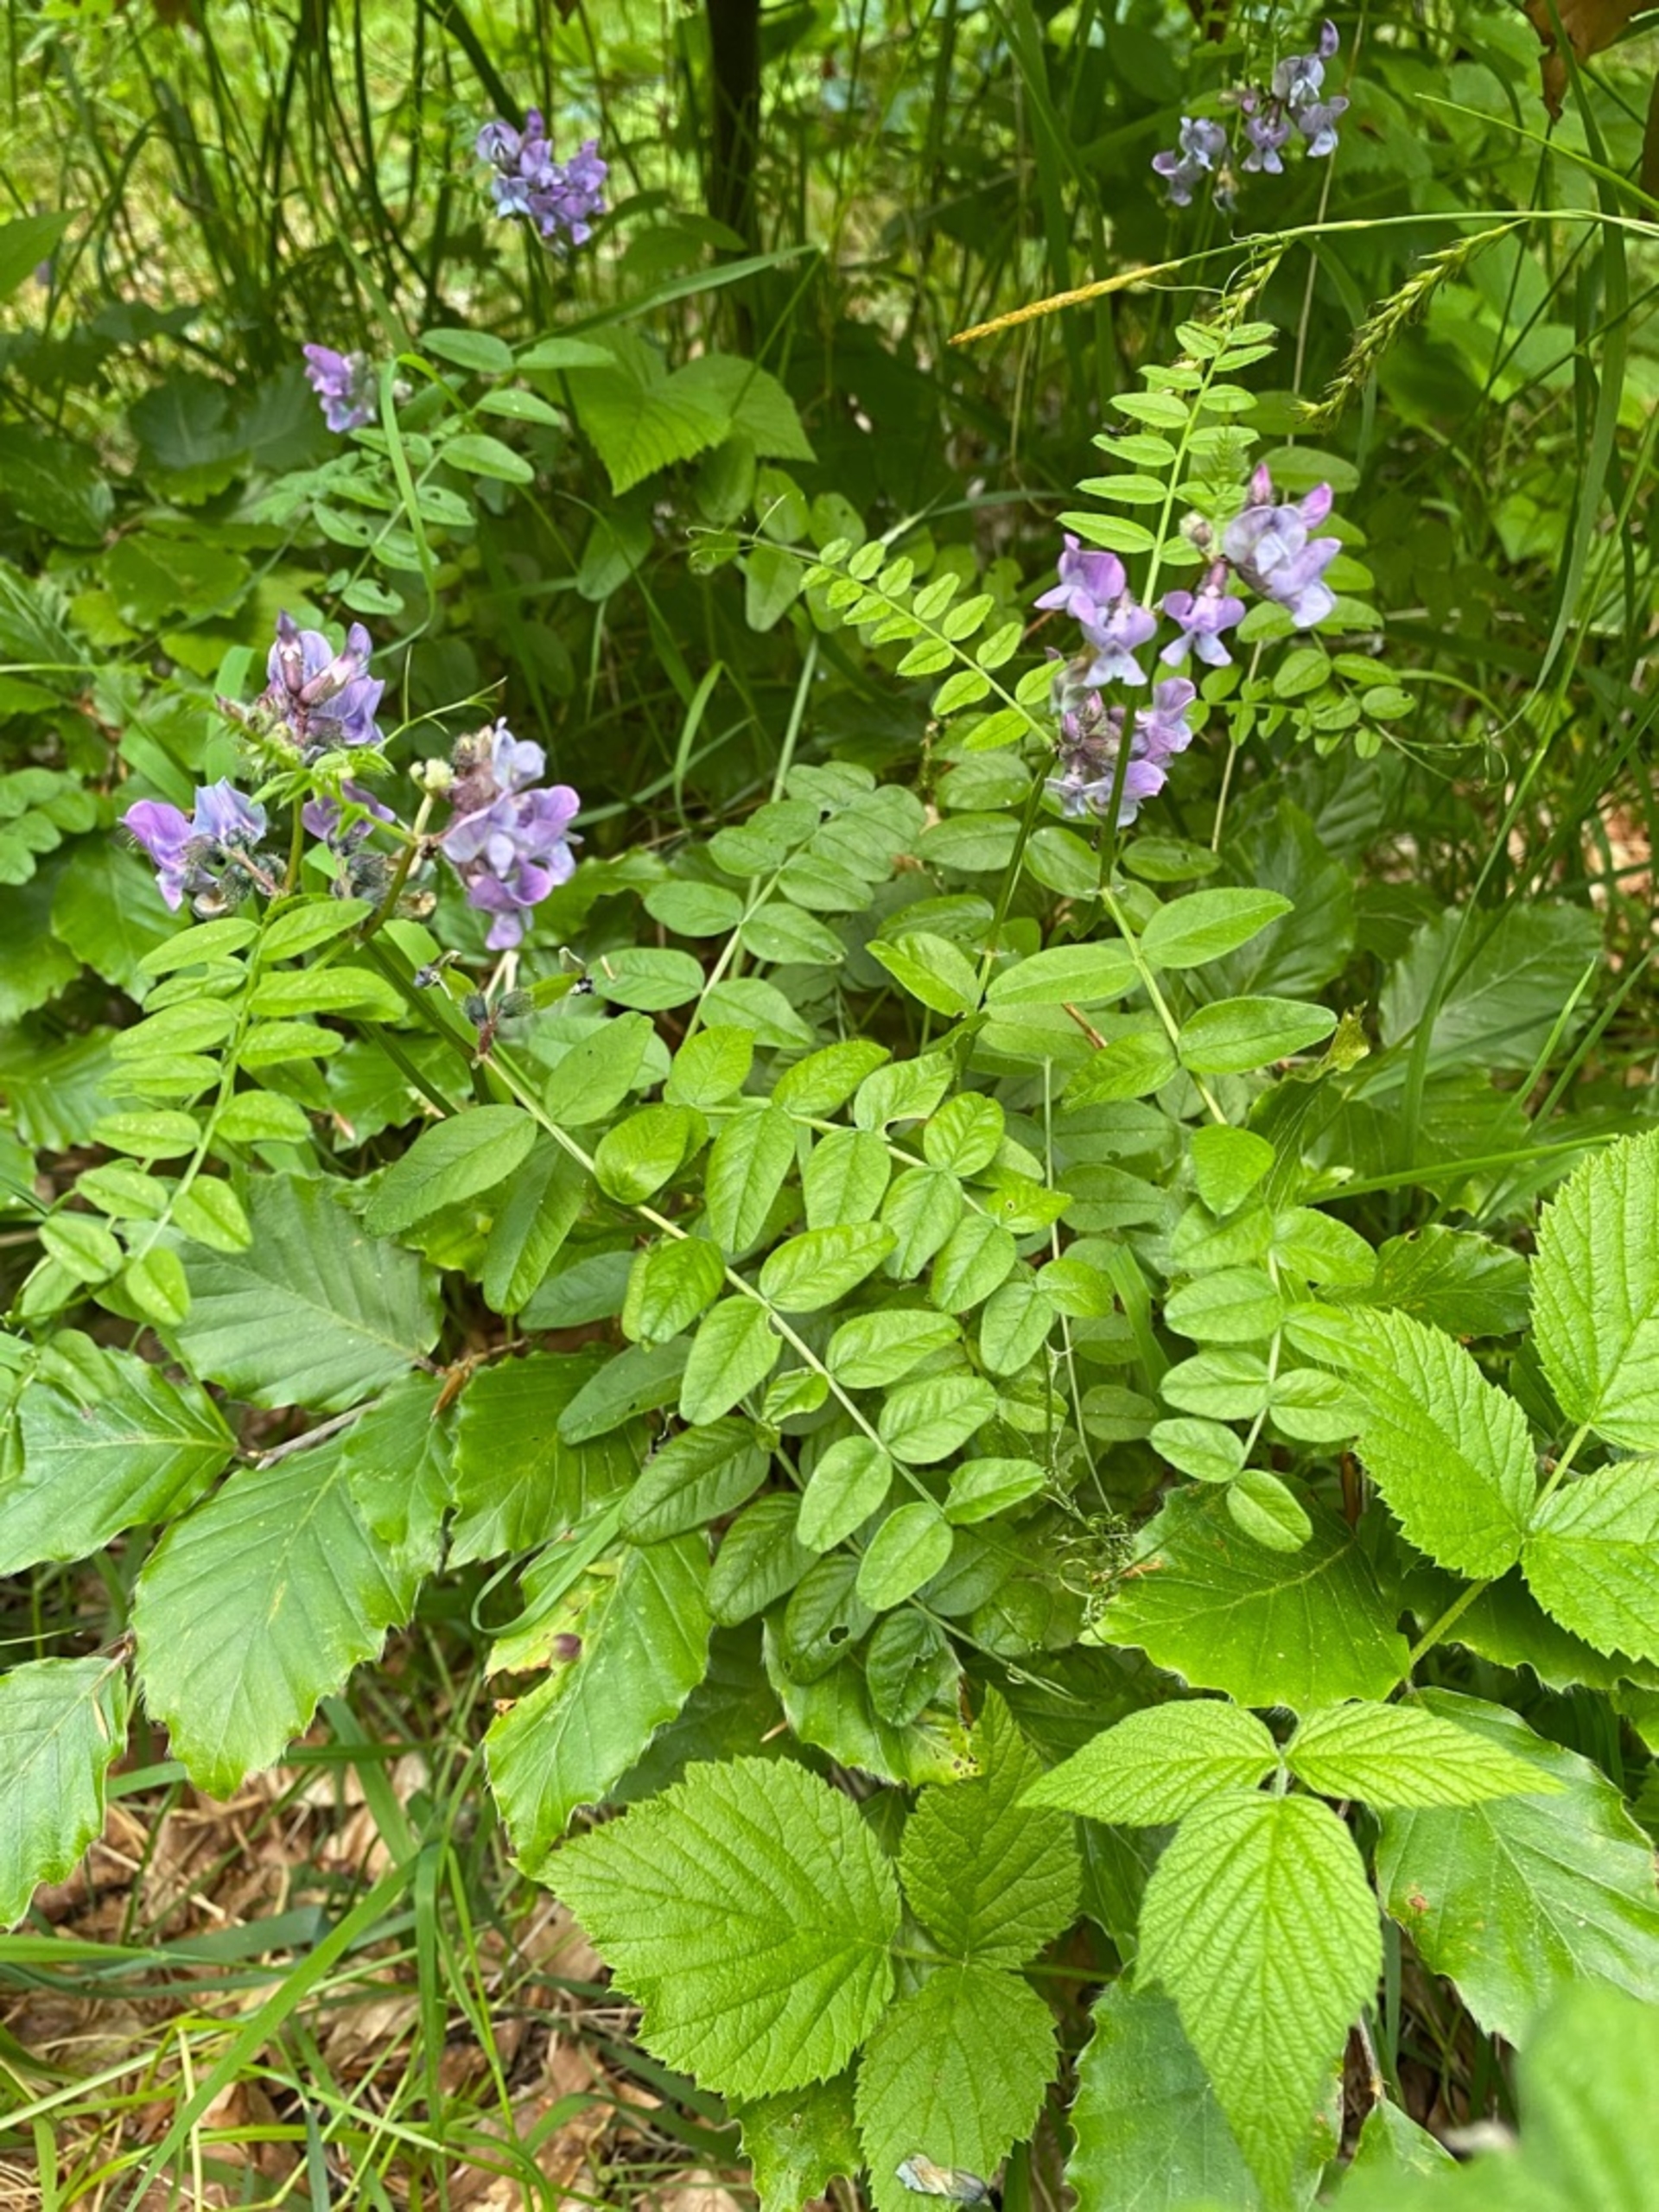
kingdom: Plantae
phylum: Tracheophyta
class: Magnoliopsida
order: Fabales
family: Fabaceae
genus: Vicia
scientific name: Vicia sepium
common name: Almindelig gærde-vikke
